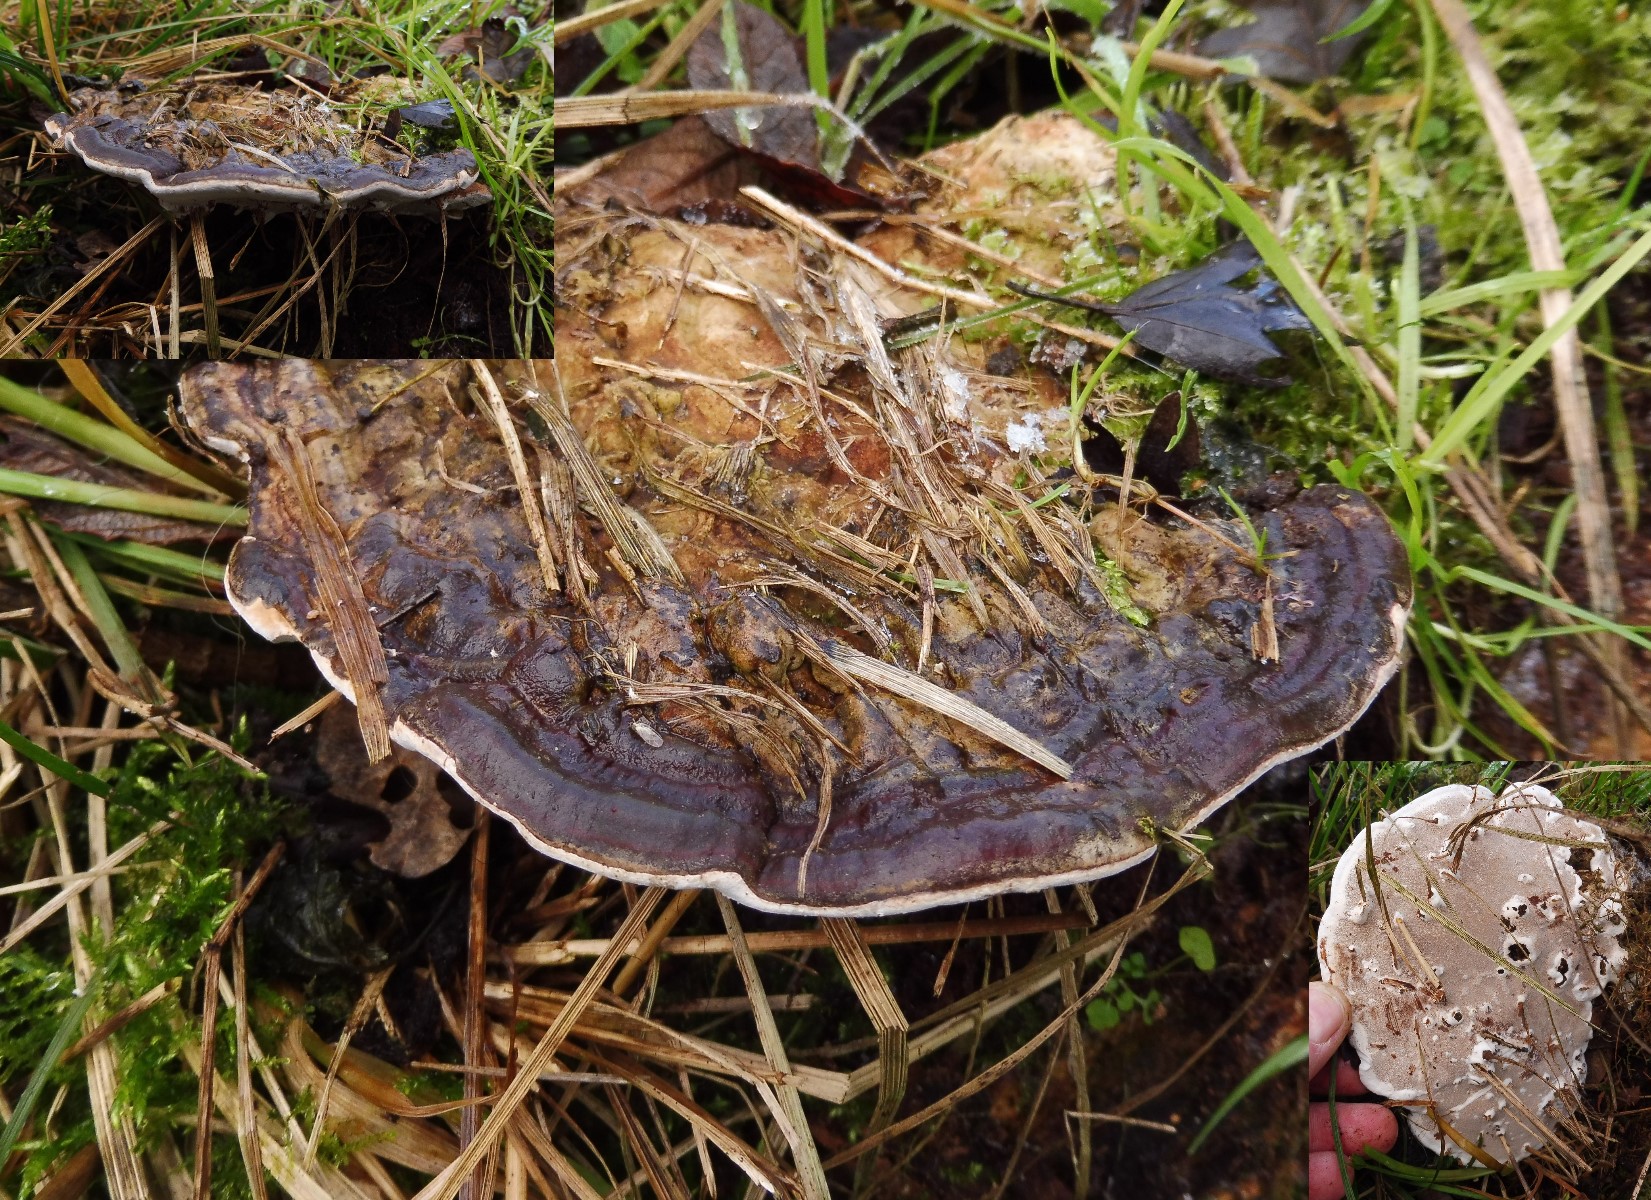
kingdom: Fungi
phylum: Basidiomycota
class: Agaricomycetes
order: Polyporales
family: Polyporaceae
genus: Ganoderma
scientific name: Ganoderma applanatum
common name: flad lakporesvamp
